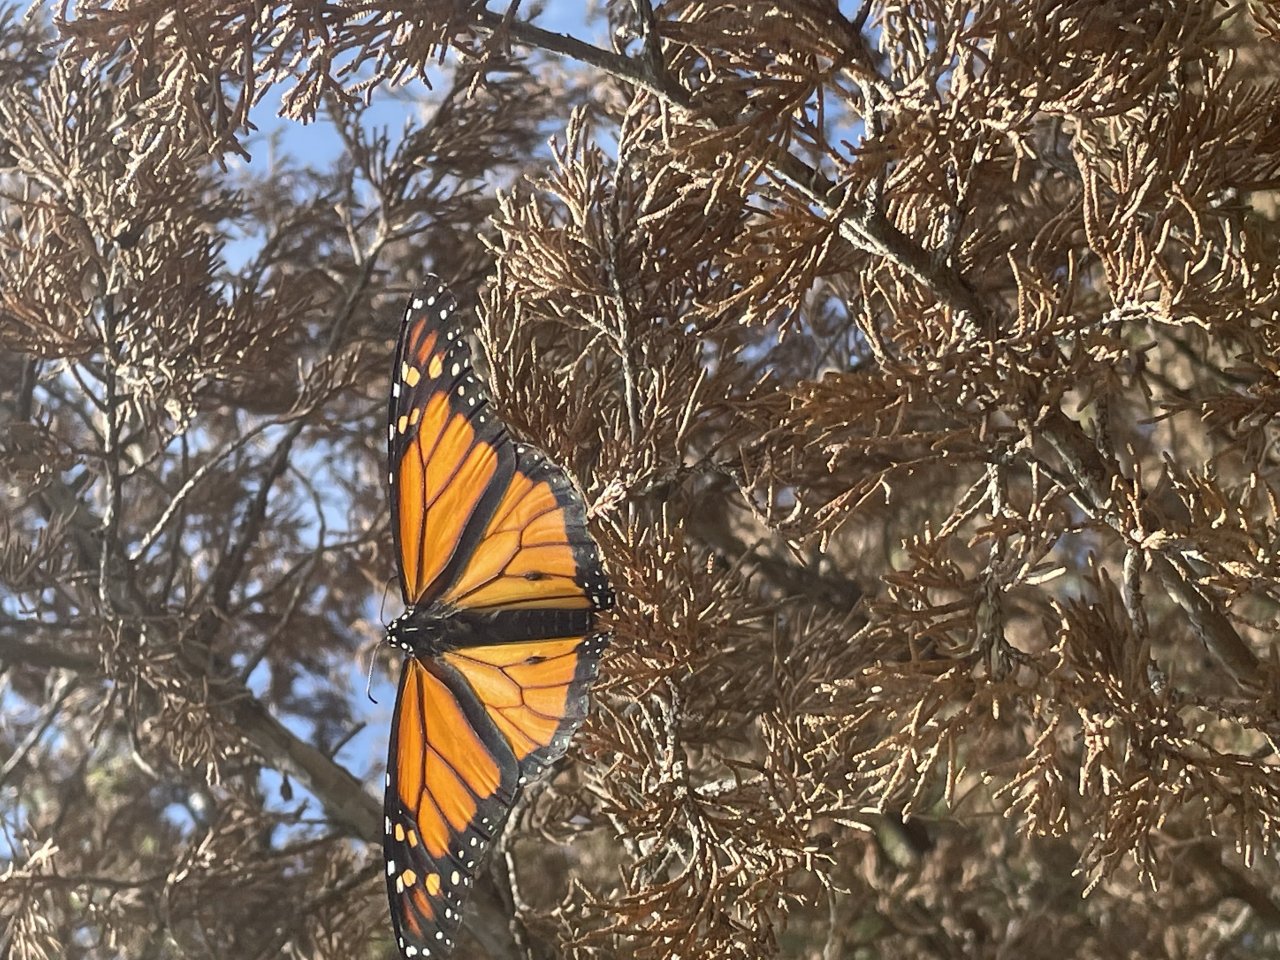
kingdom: Animalia
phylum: Arthropoda
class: Insecta
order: Lepidoptera
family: Nymphalidae
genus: Danaus
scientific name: Danaus plexippus
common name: Monarch
